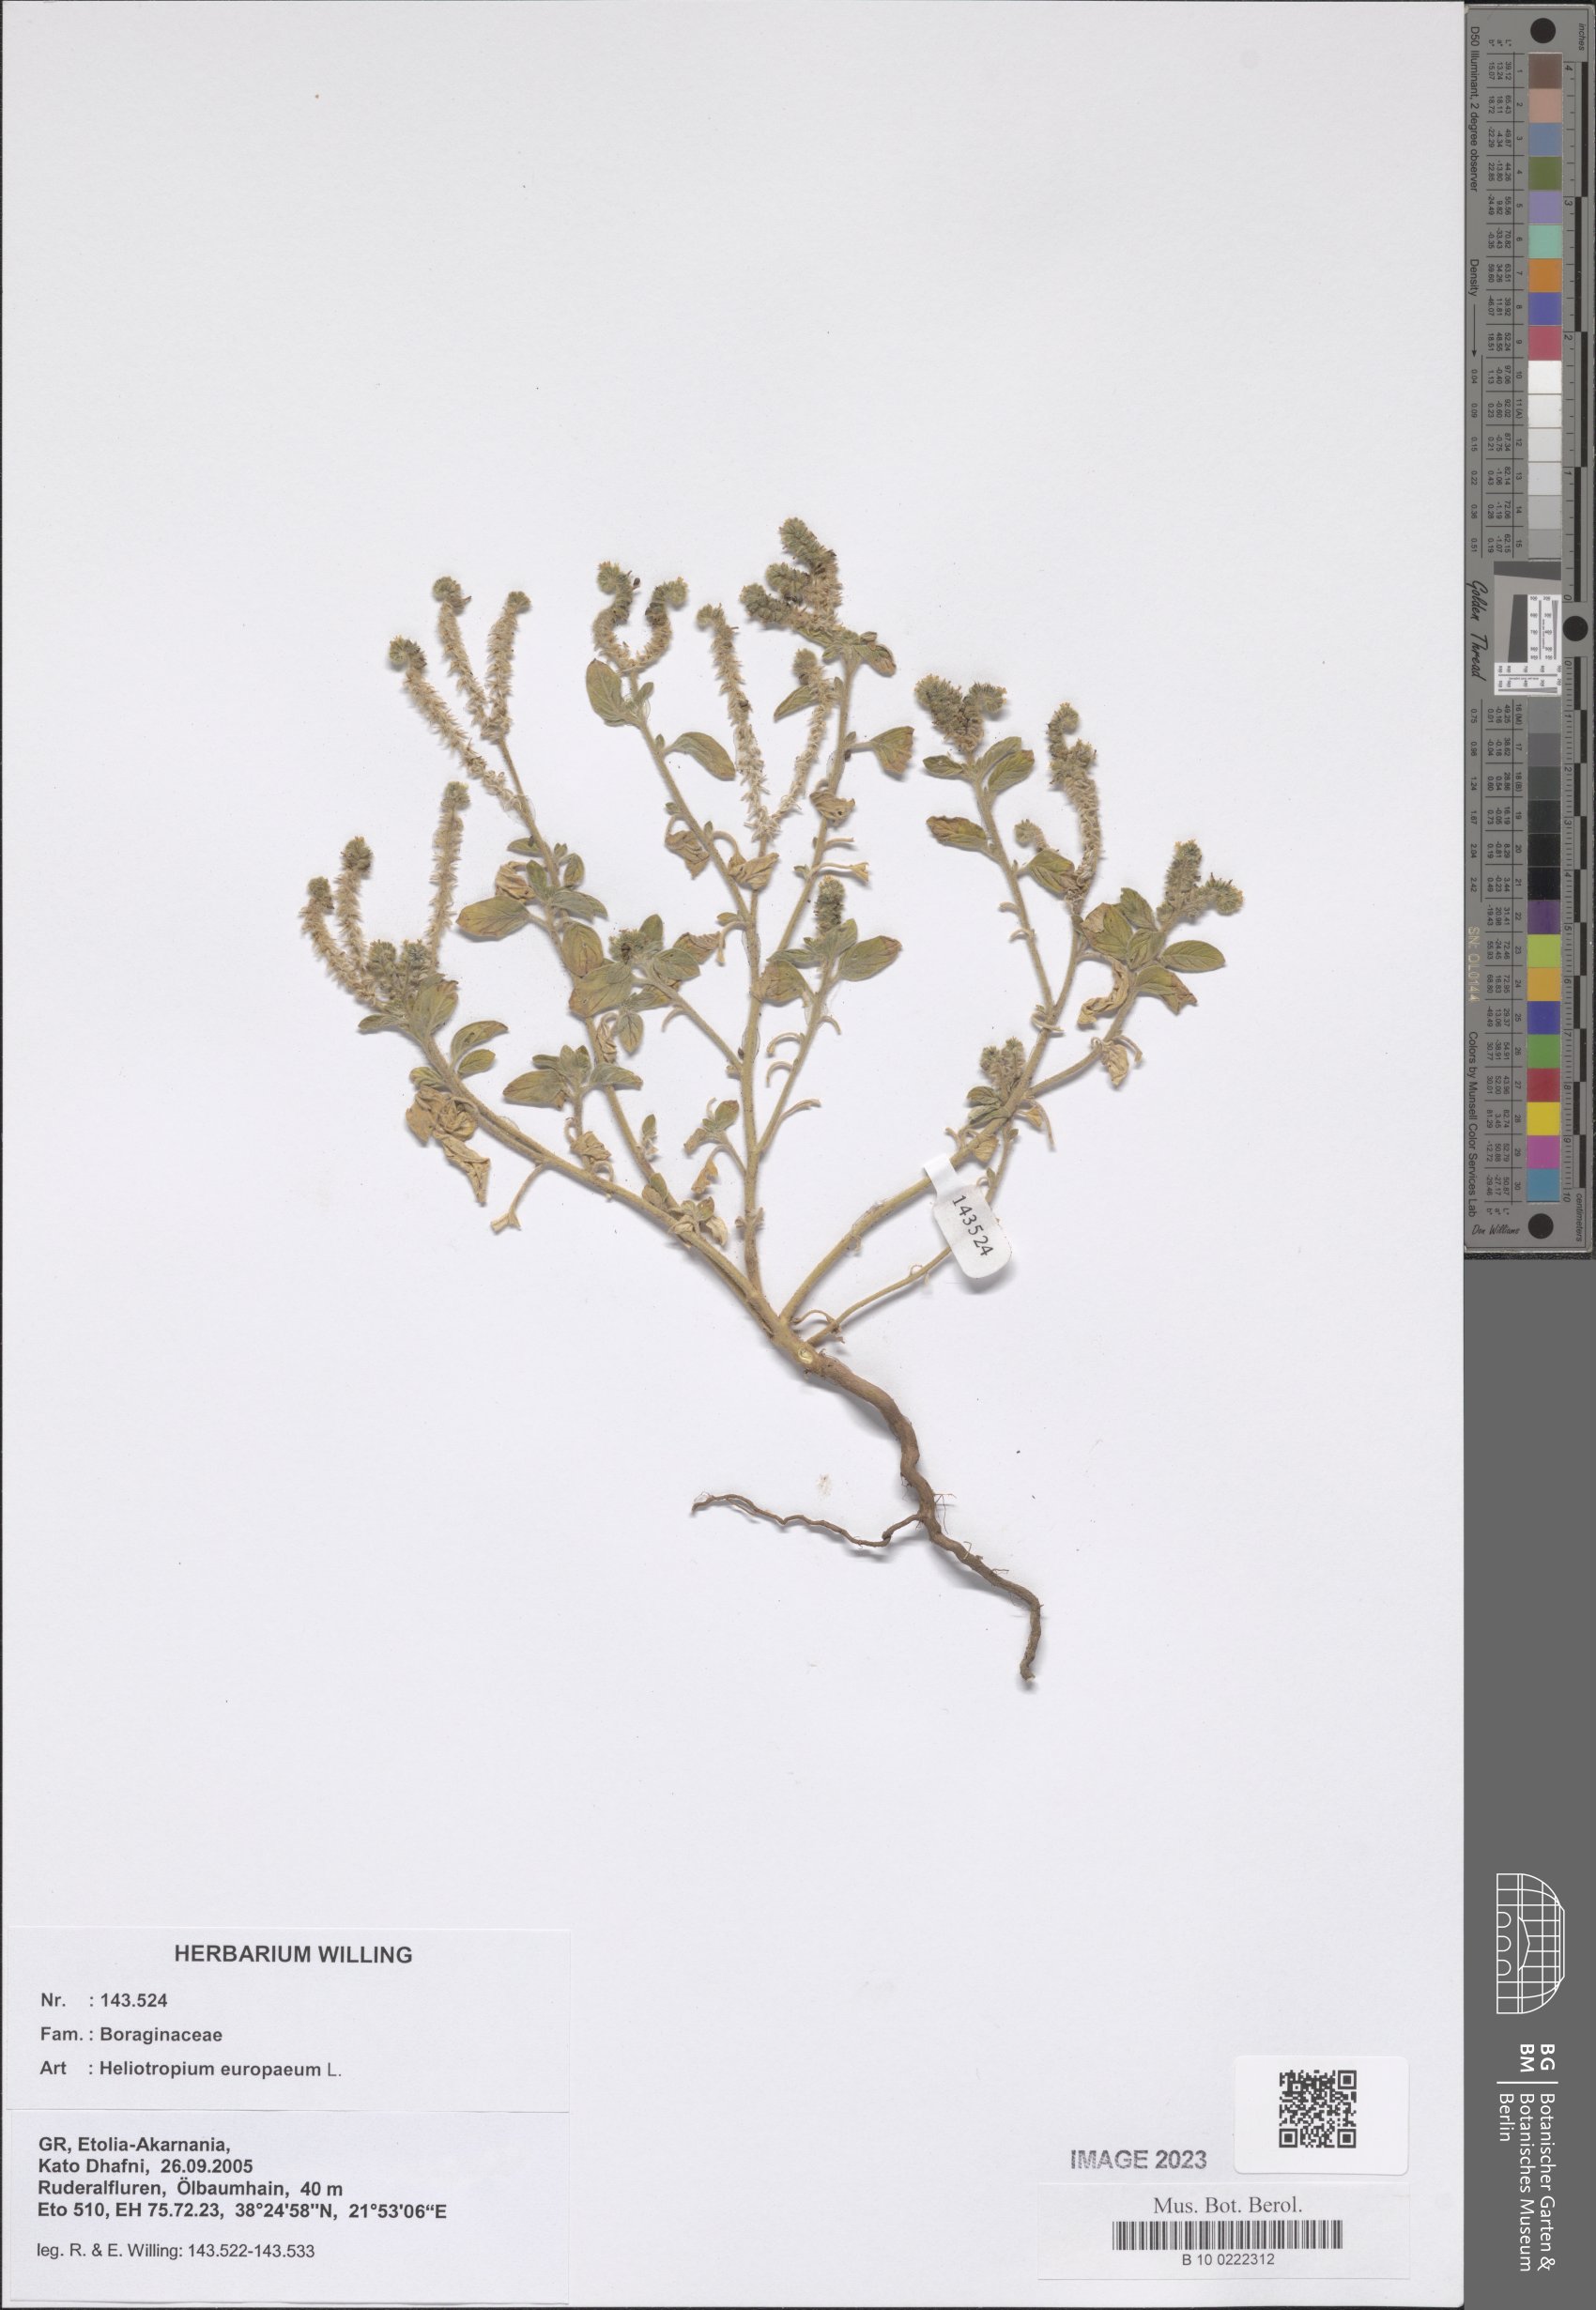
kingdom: Plantae
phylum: Tracheophyta
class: Magnoliopsida
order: Boraginales
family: Heliotropiaceae
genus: Heliotropium
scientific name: Heliotropium europaeum
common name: European heliotrope
